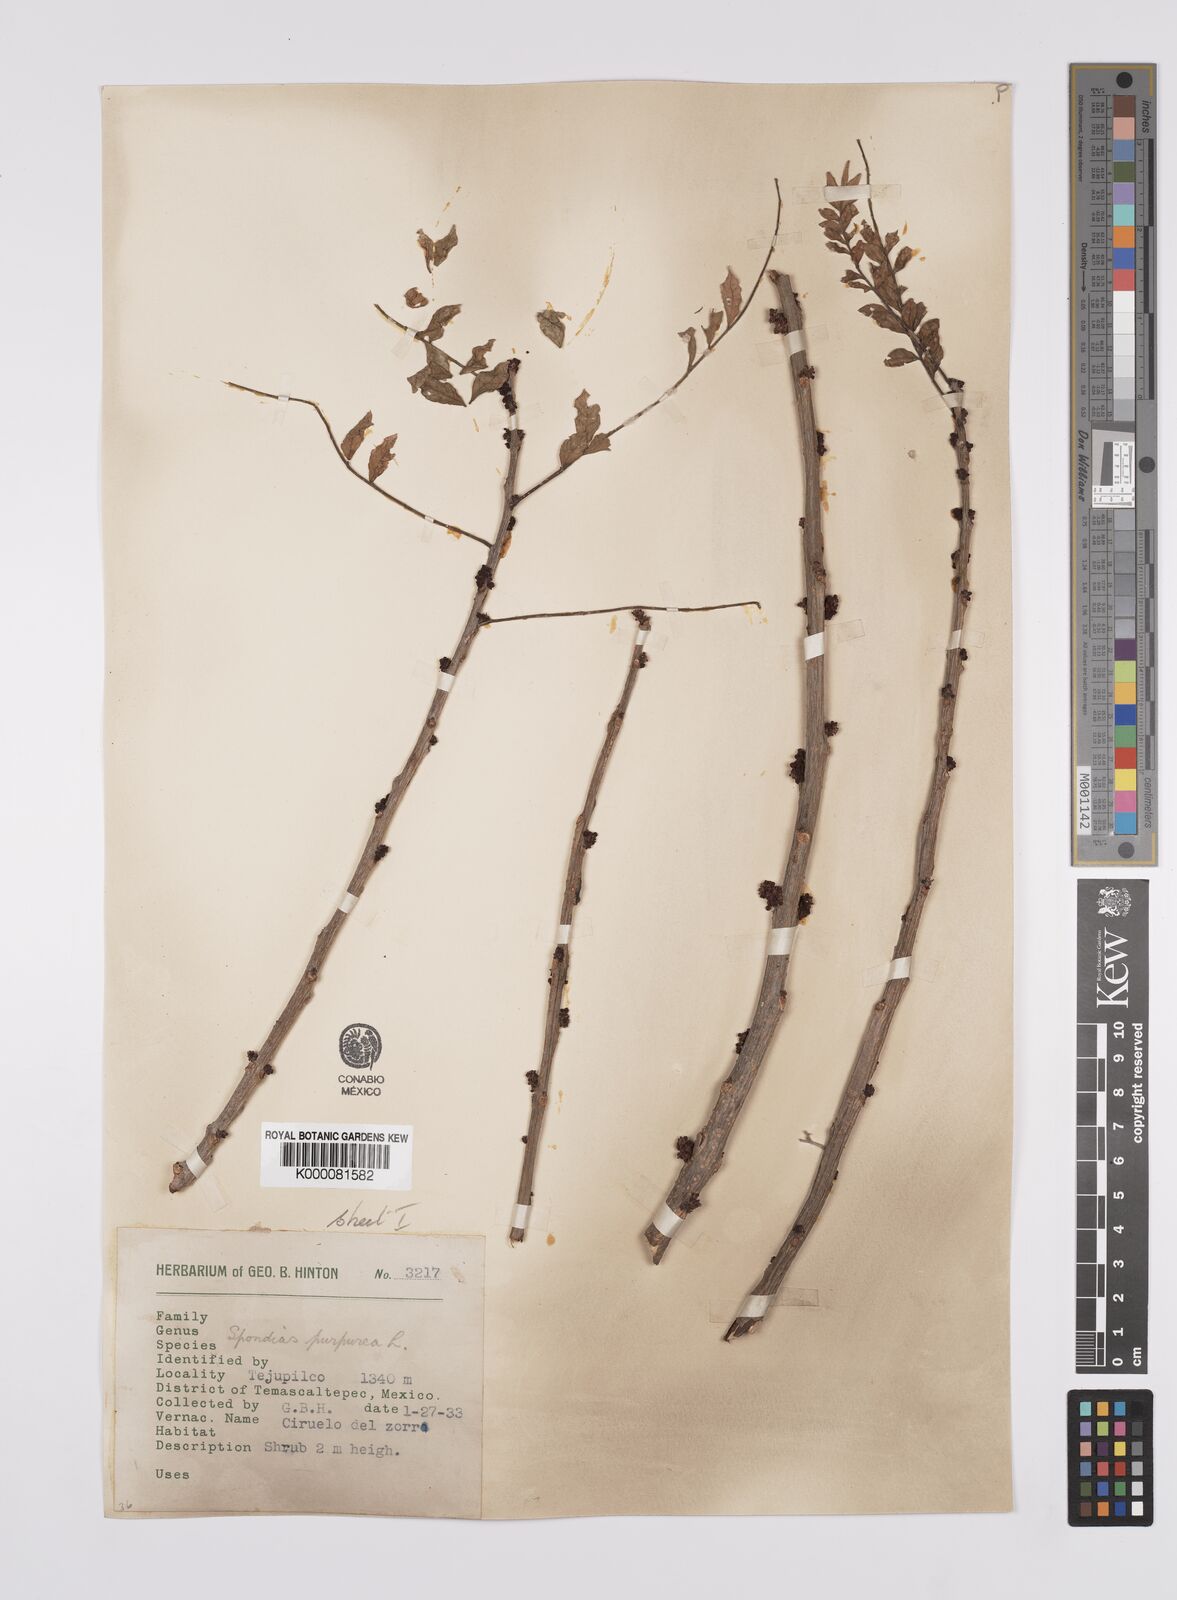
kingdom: Plantae
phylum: Tracheophyta
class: Magnoliopsida
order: Sapindales
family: Anacardiaceae
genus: Spondias
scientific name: Spondias purpurea
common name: Purple mombin
